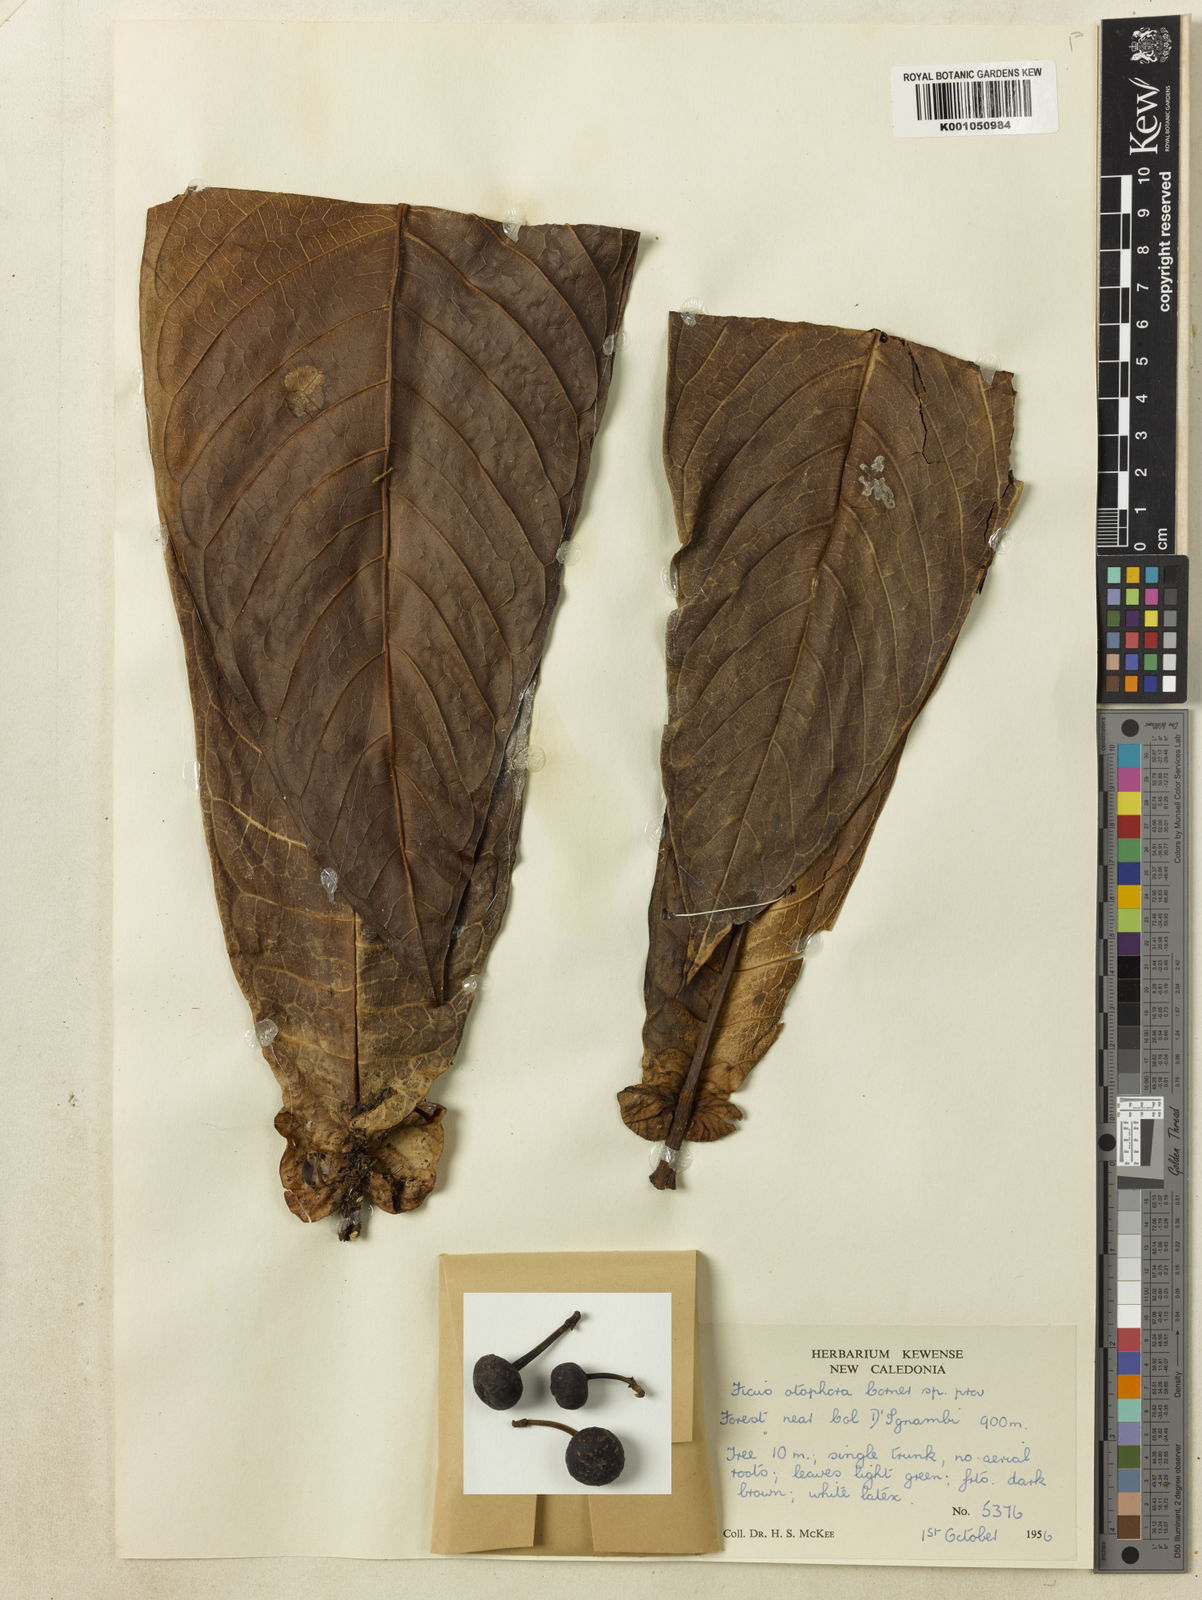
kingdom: Plantae
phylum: Tracheophyta
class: Magnoliopsida
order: Rosales
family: Moraceae
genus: Ficus
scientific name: Ficus otophora
